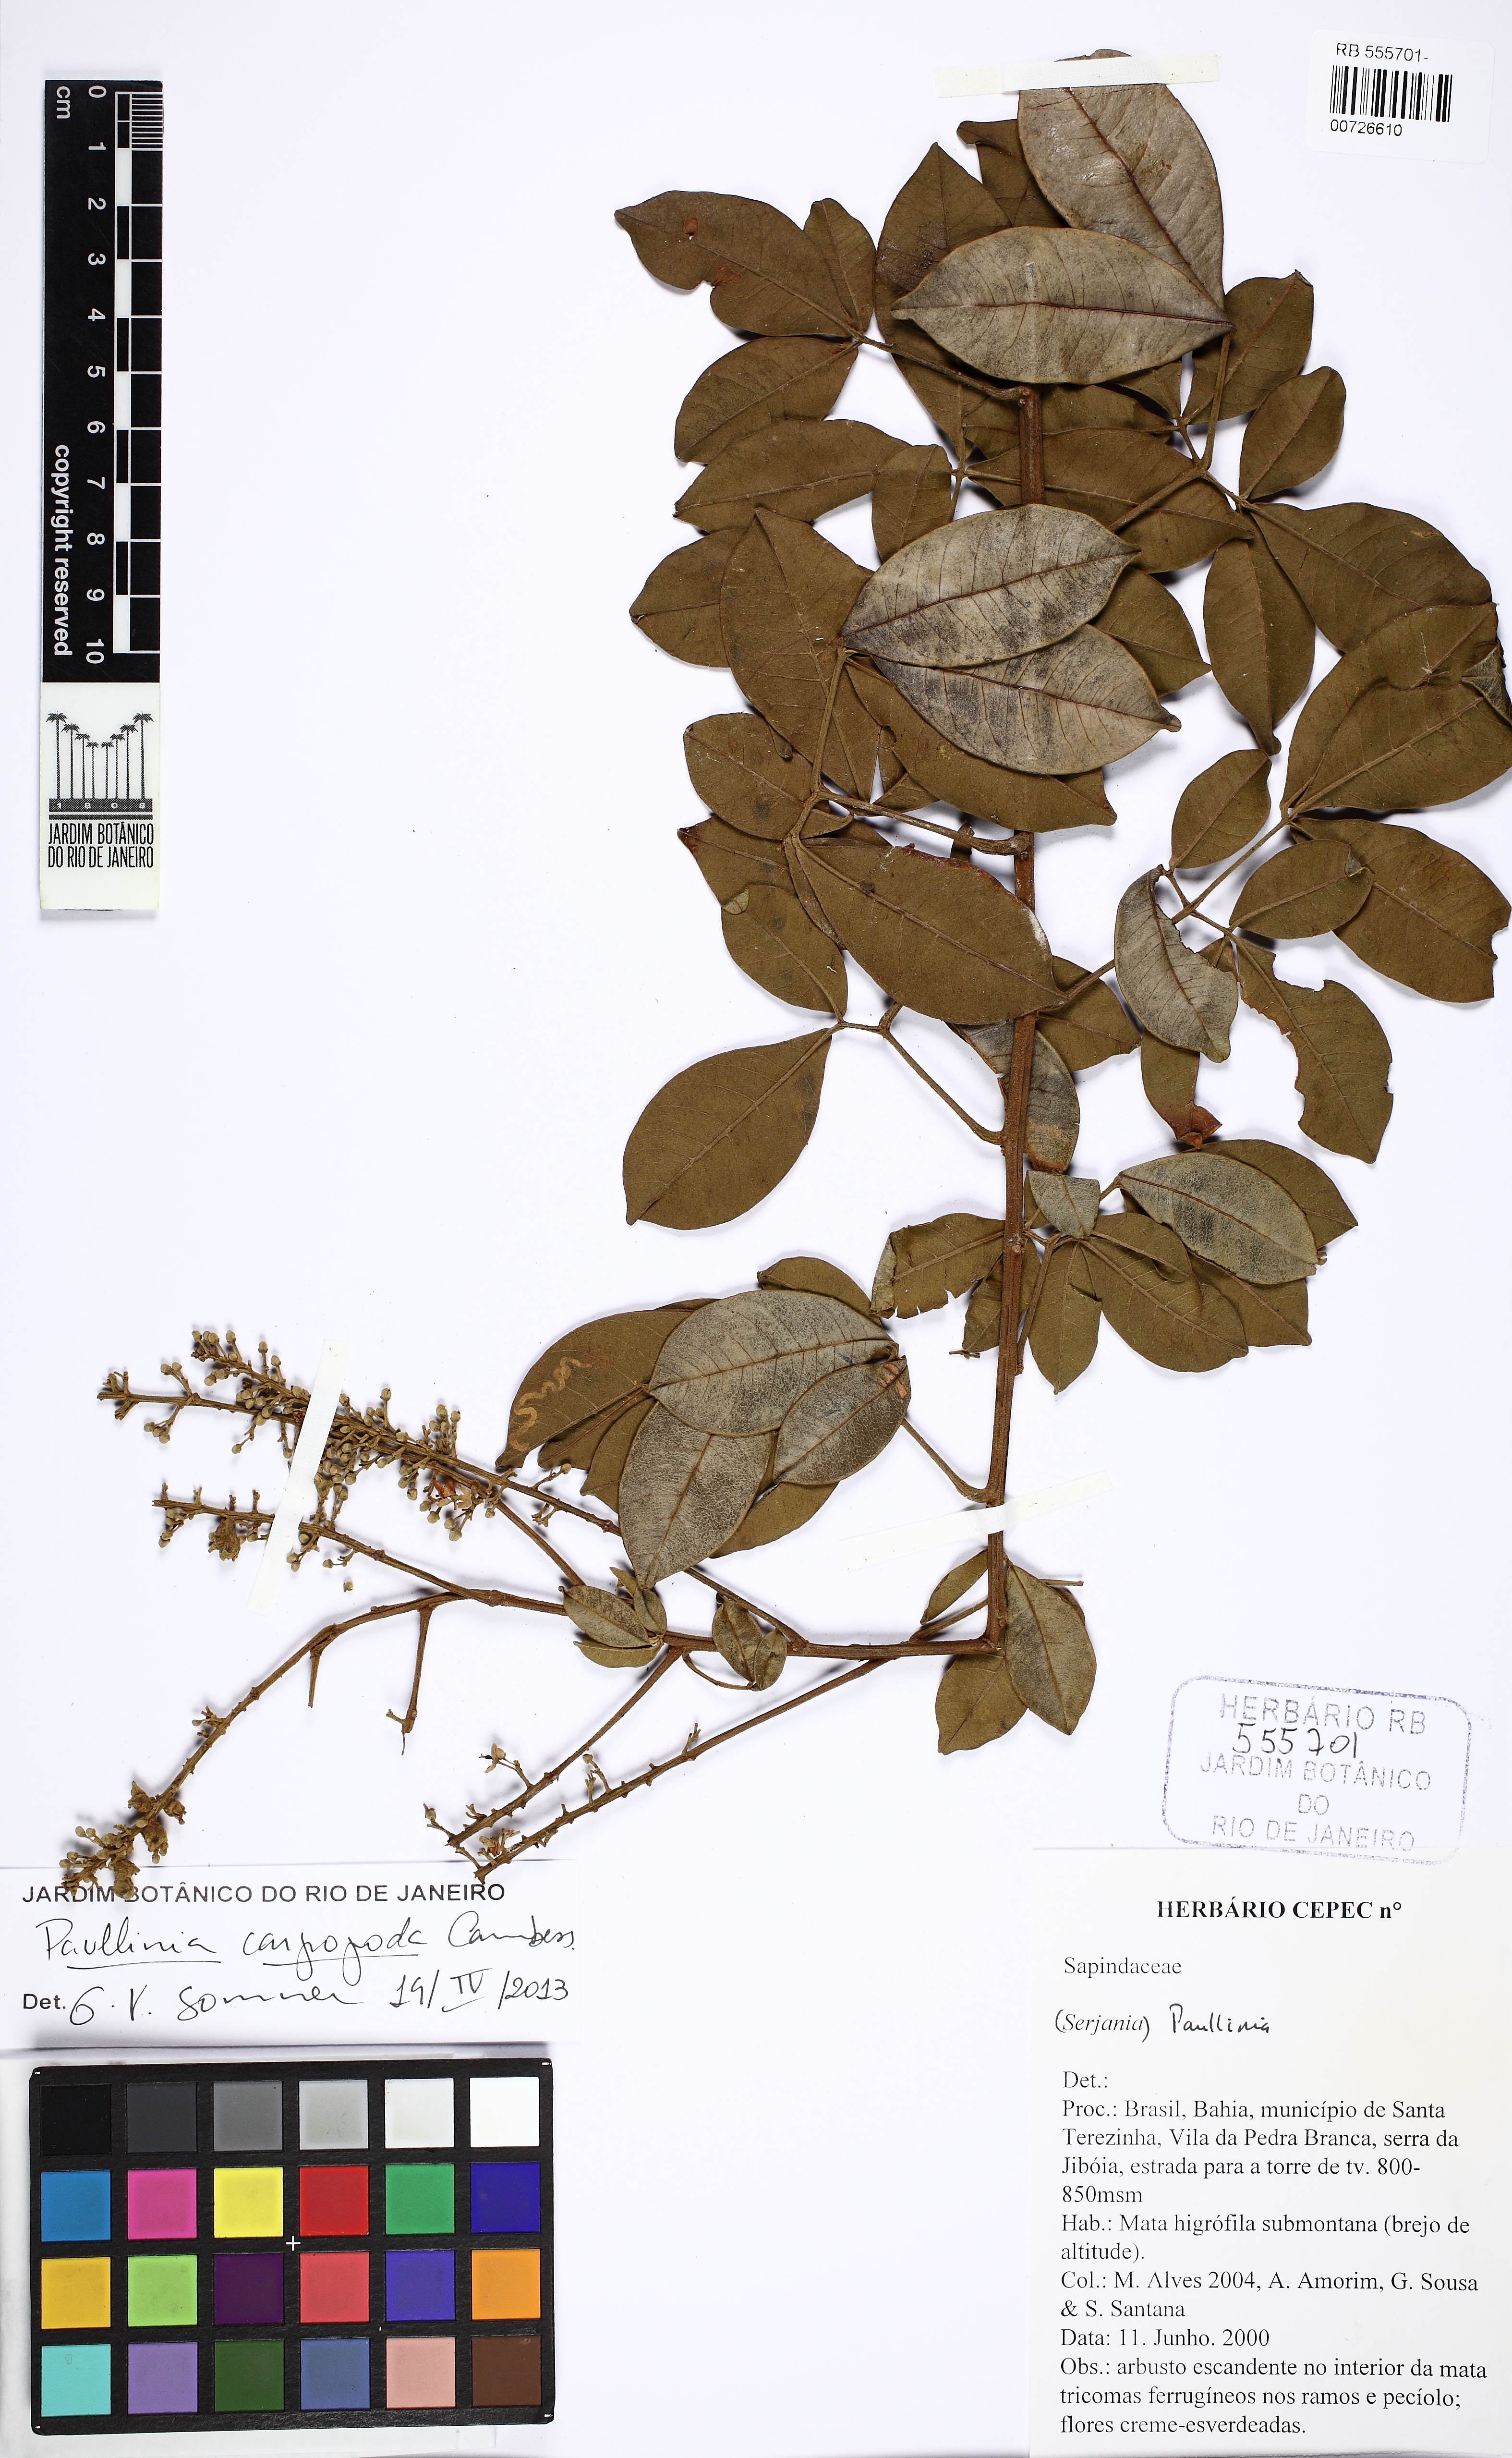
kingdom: Plantae
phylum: Tracheophyta
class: Magnoliopsida
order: Sapindales
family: Sapindaceae
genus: Paullinia
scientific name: Paullinia carpopodea
